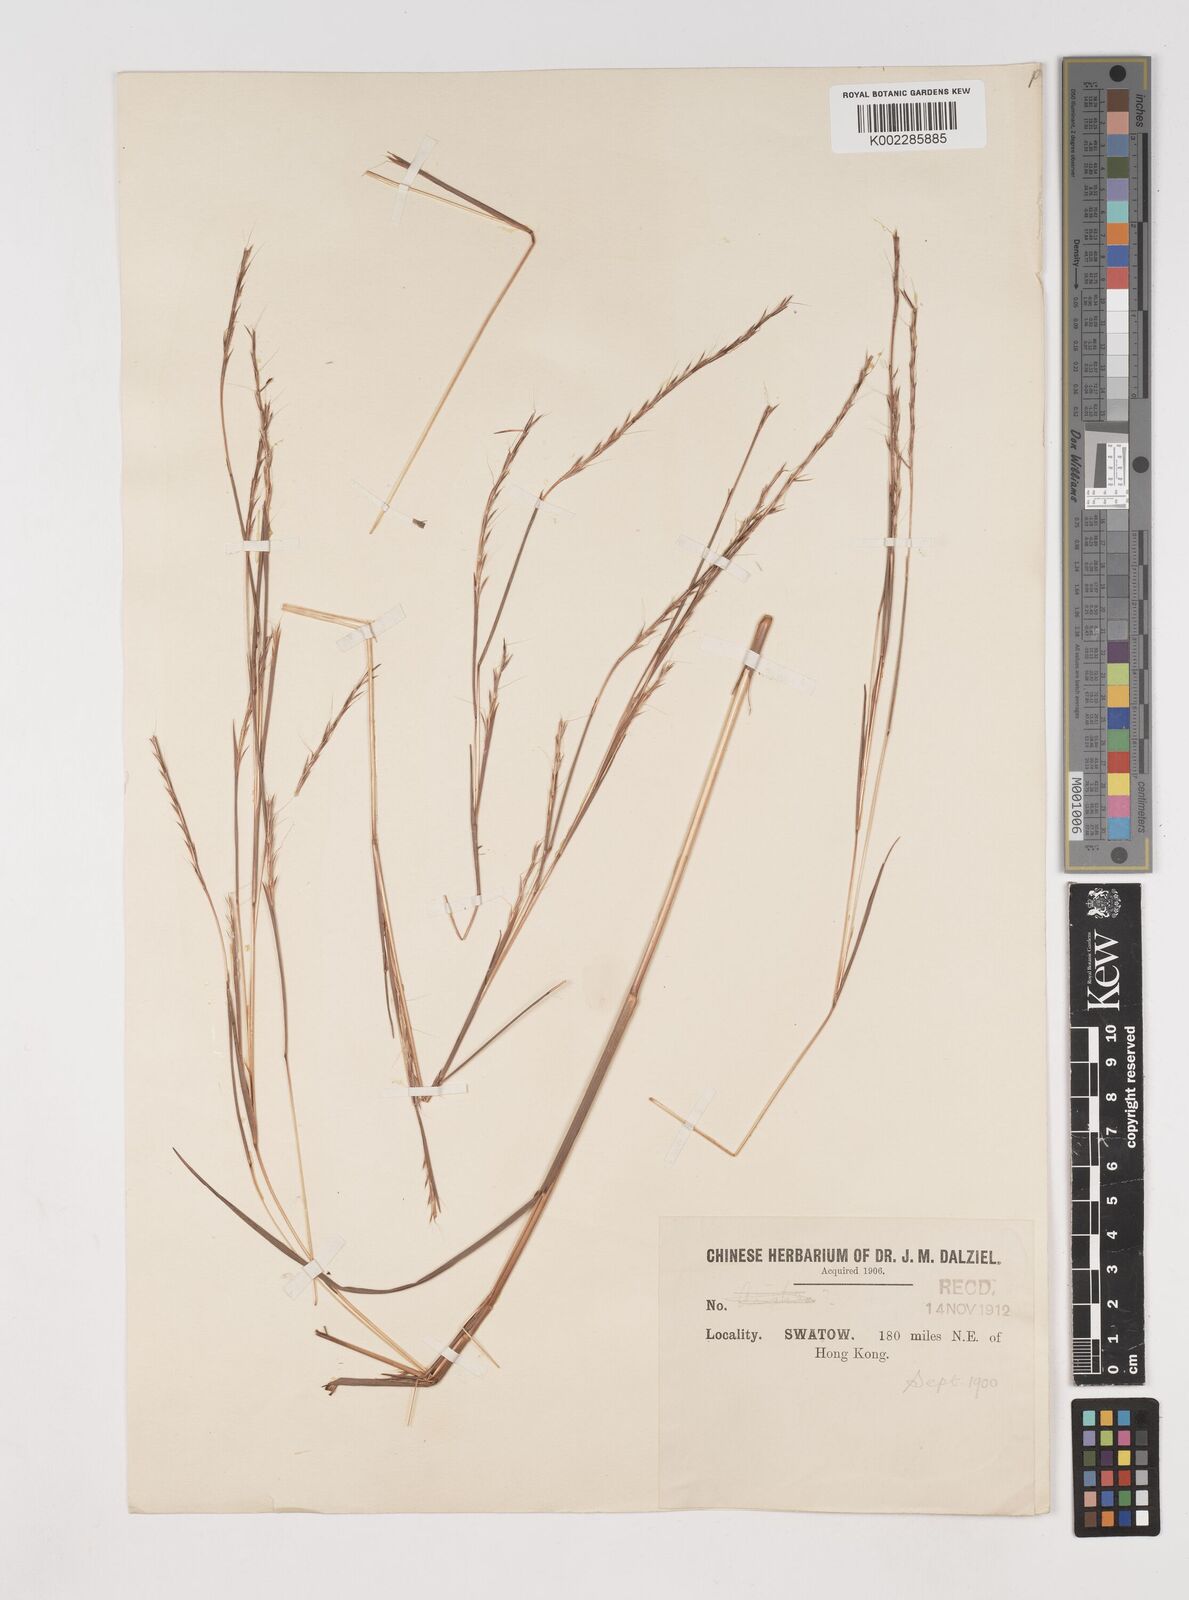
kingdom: Plantae
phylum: Tracheophyta
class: Liliopsida
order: Poales
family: Poaceae
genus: Schizachyrium
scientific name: Schizachyrium sanguineum
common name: Crimson bluestem
